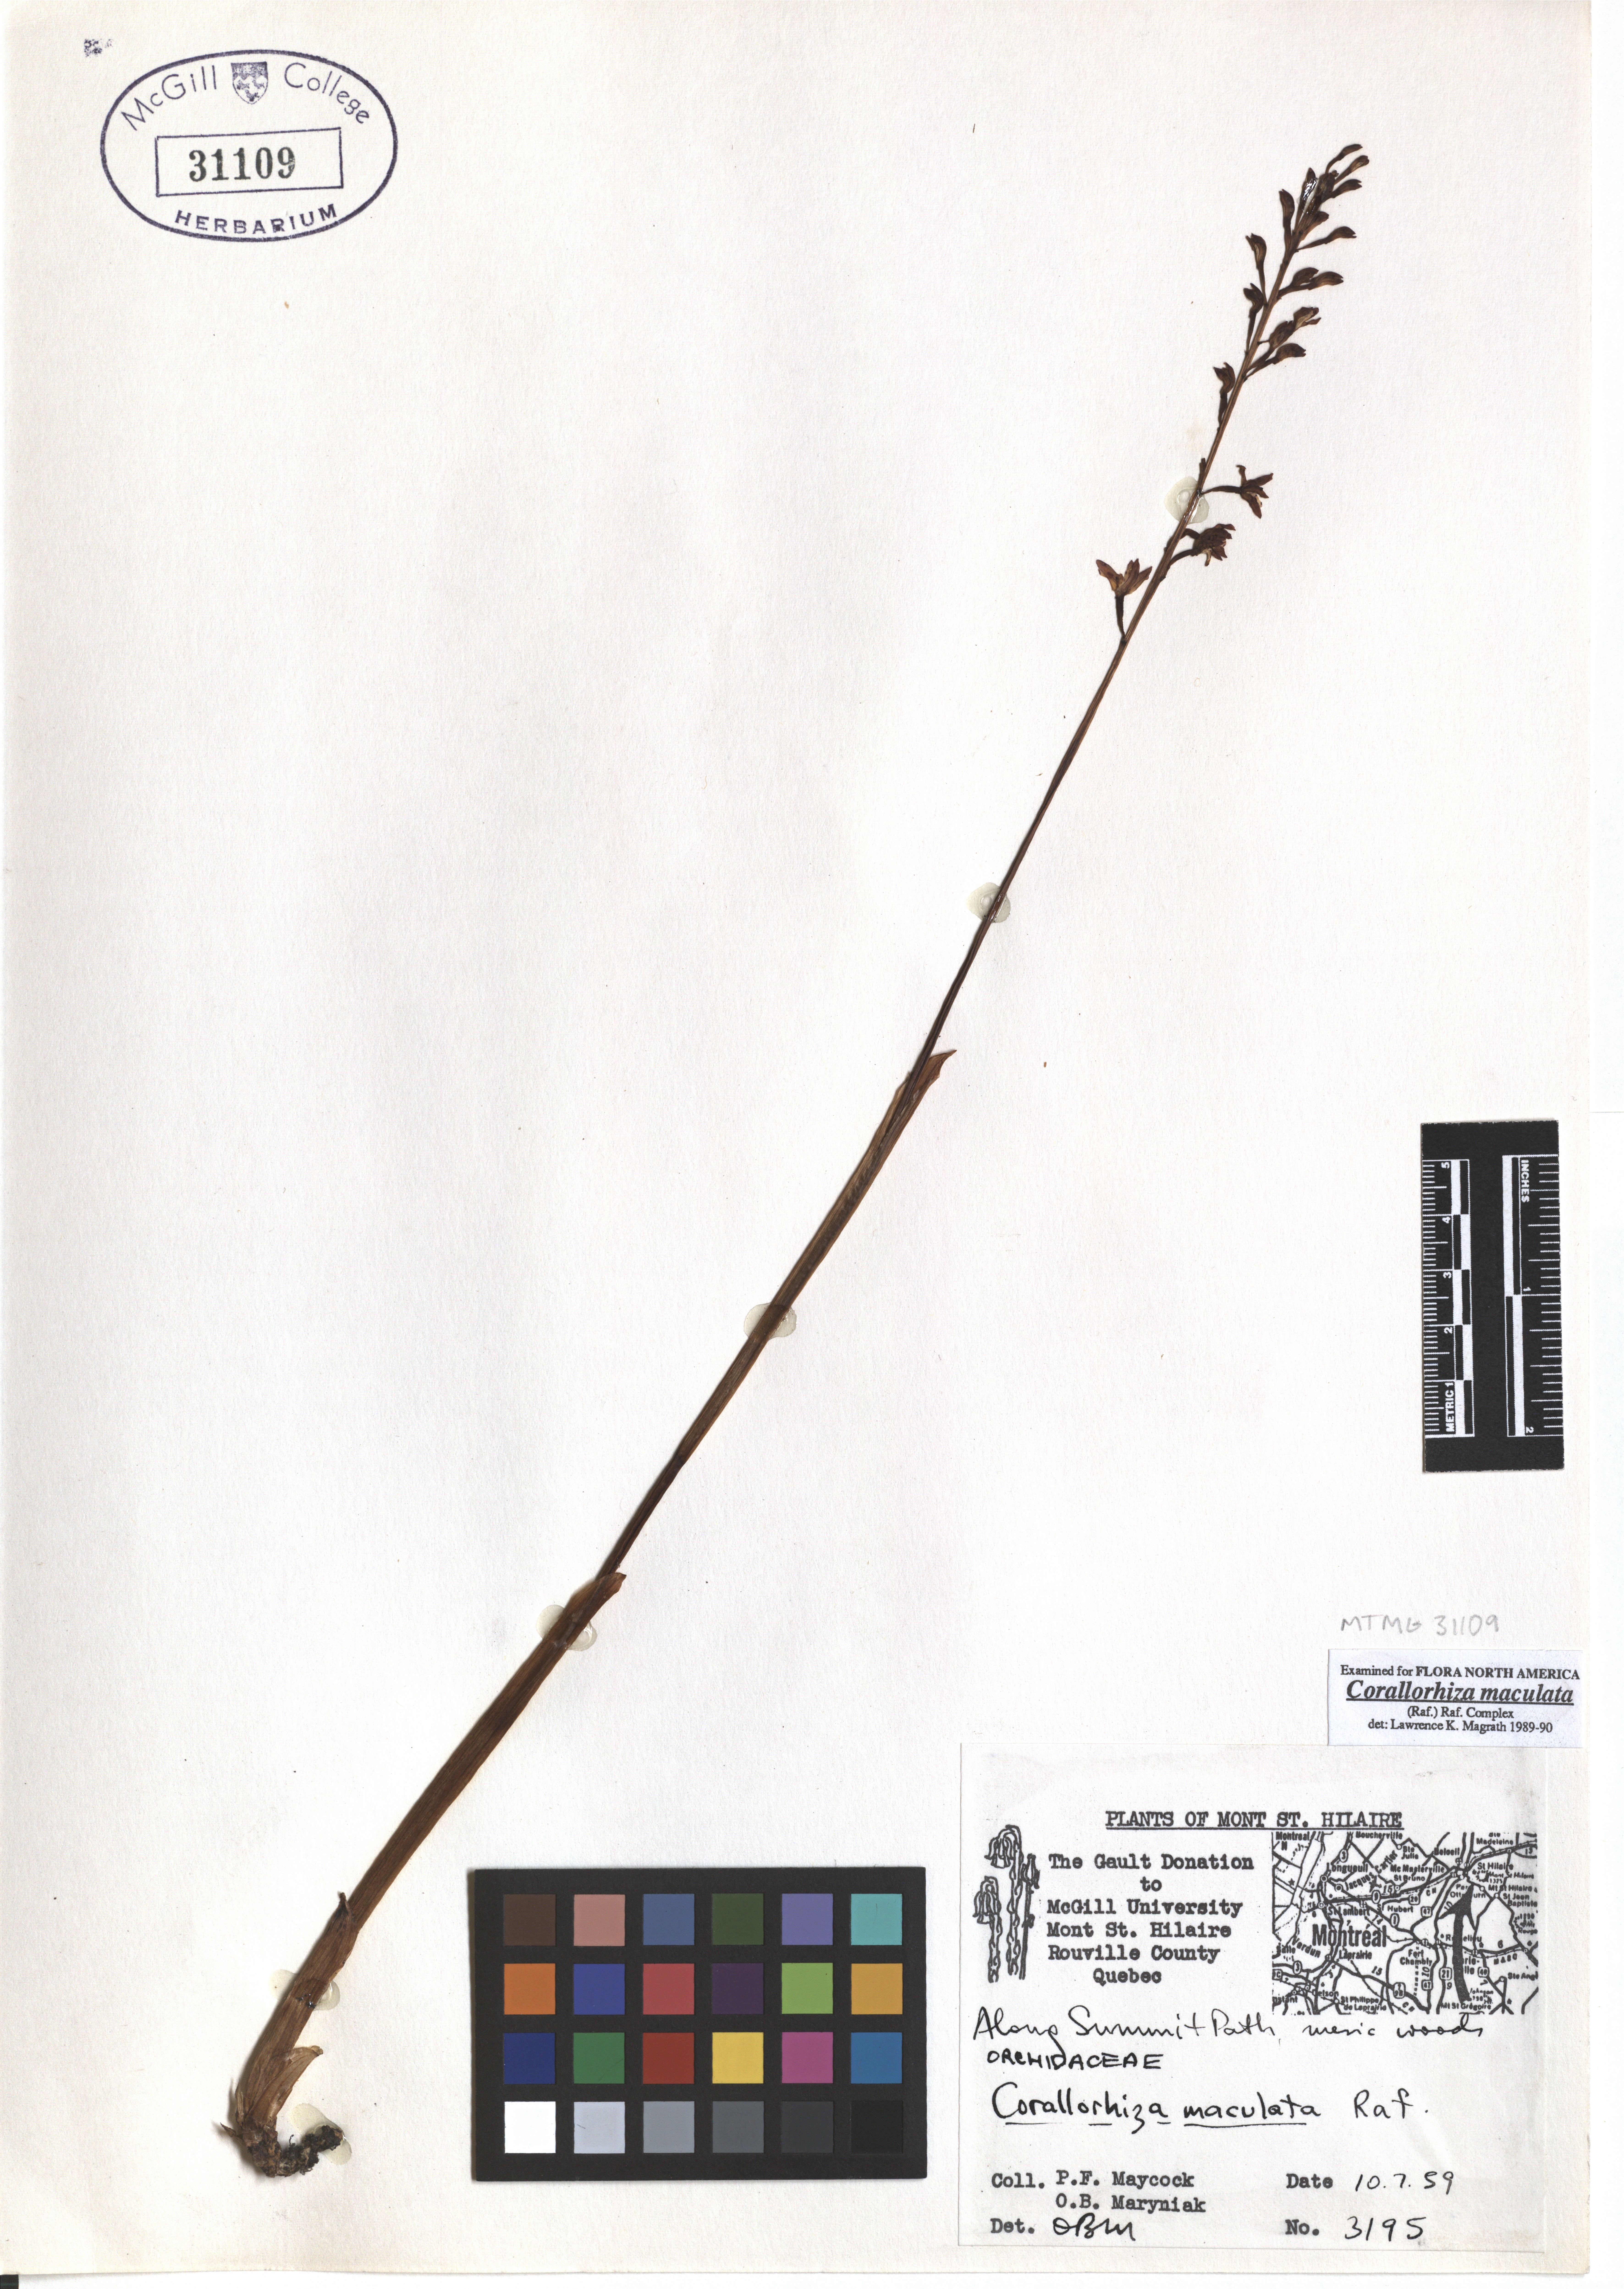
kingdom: Plantae
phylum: Tracheophyta
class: Liliopsida
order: Asparagales
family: Orchidaceae
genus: Corallorhiza
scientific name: Corallorhiza maculata
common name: Spotted coralroot
